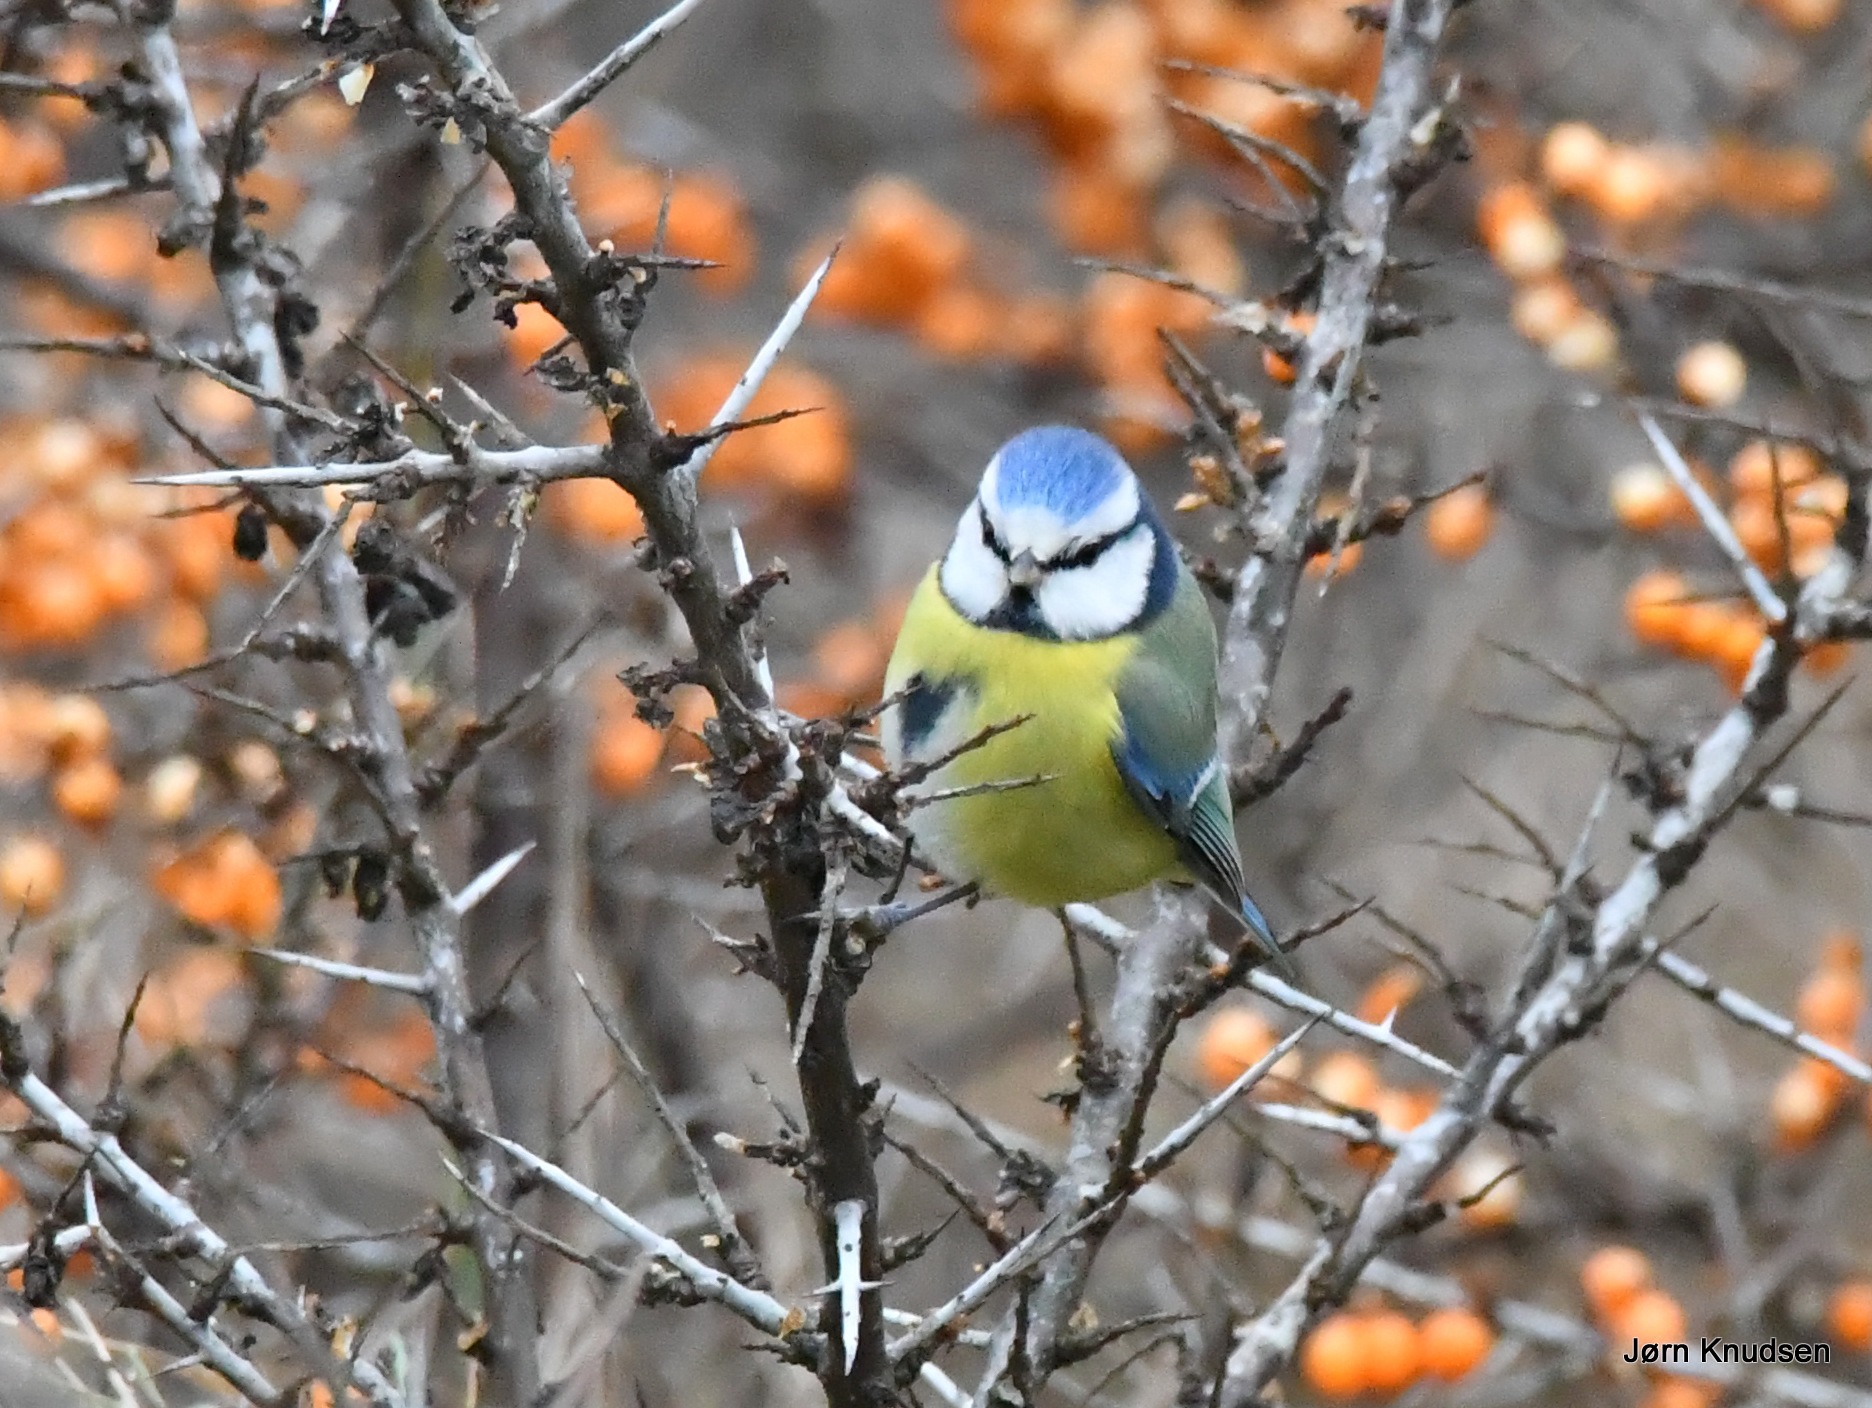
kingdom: Animalia
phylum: Chordata
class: Aves
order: Passeriformes
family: Paridae
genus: Cyanistes
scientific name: Cyanistes caeruleus
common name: Blåmejse
